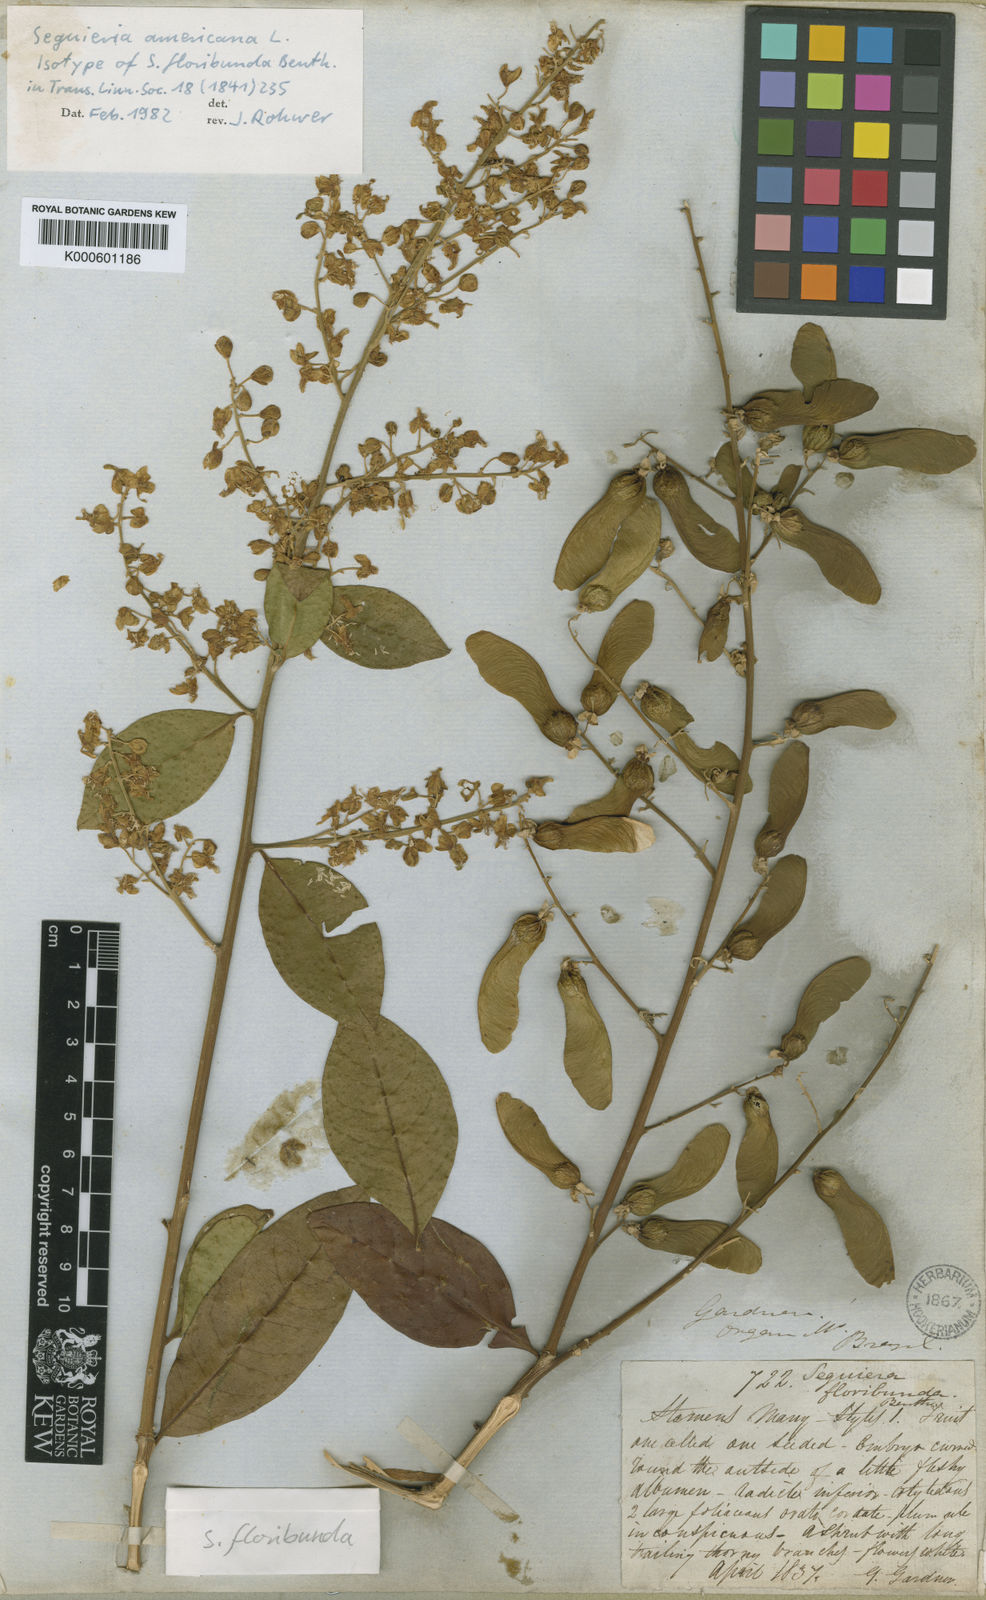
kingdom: Plantae
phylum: Tracheophyta
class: Magnoliopsida
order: Caryophyllales
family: Phytolaccaceae
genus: Seguieria
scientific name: Seguieria americana
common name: American seguieria
